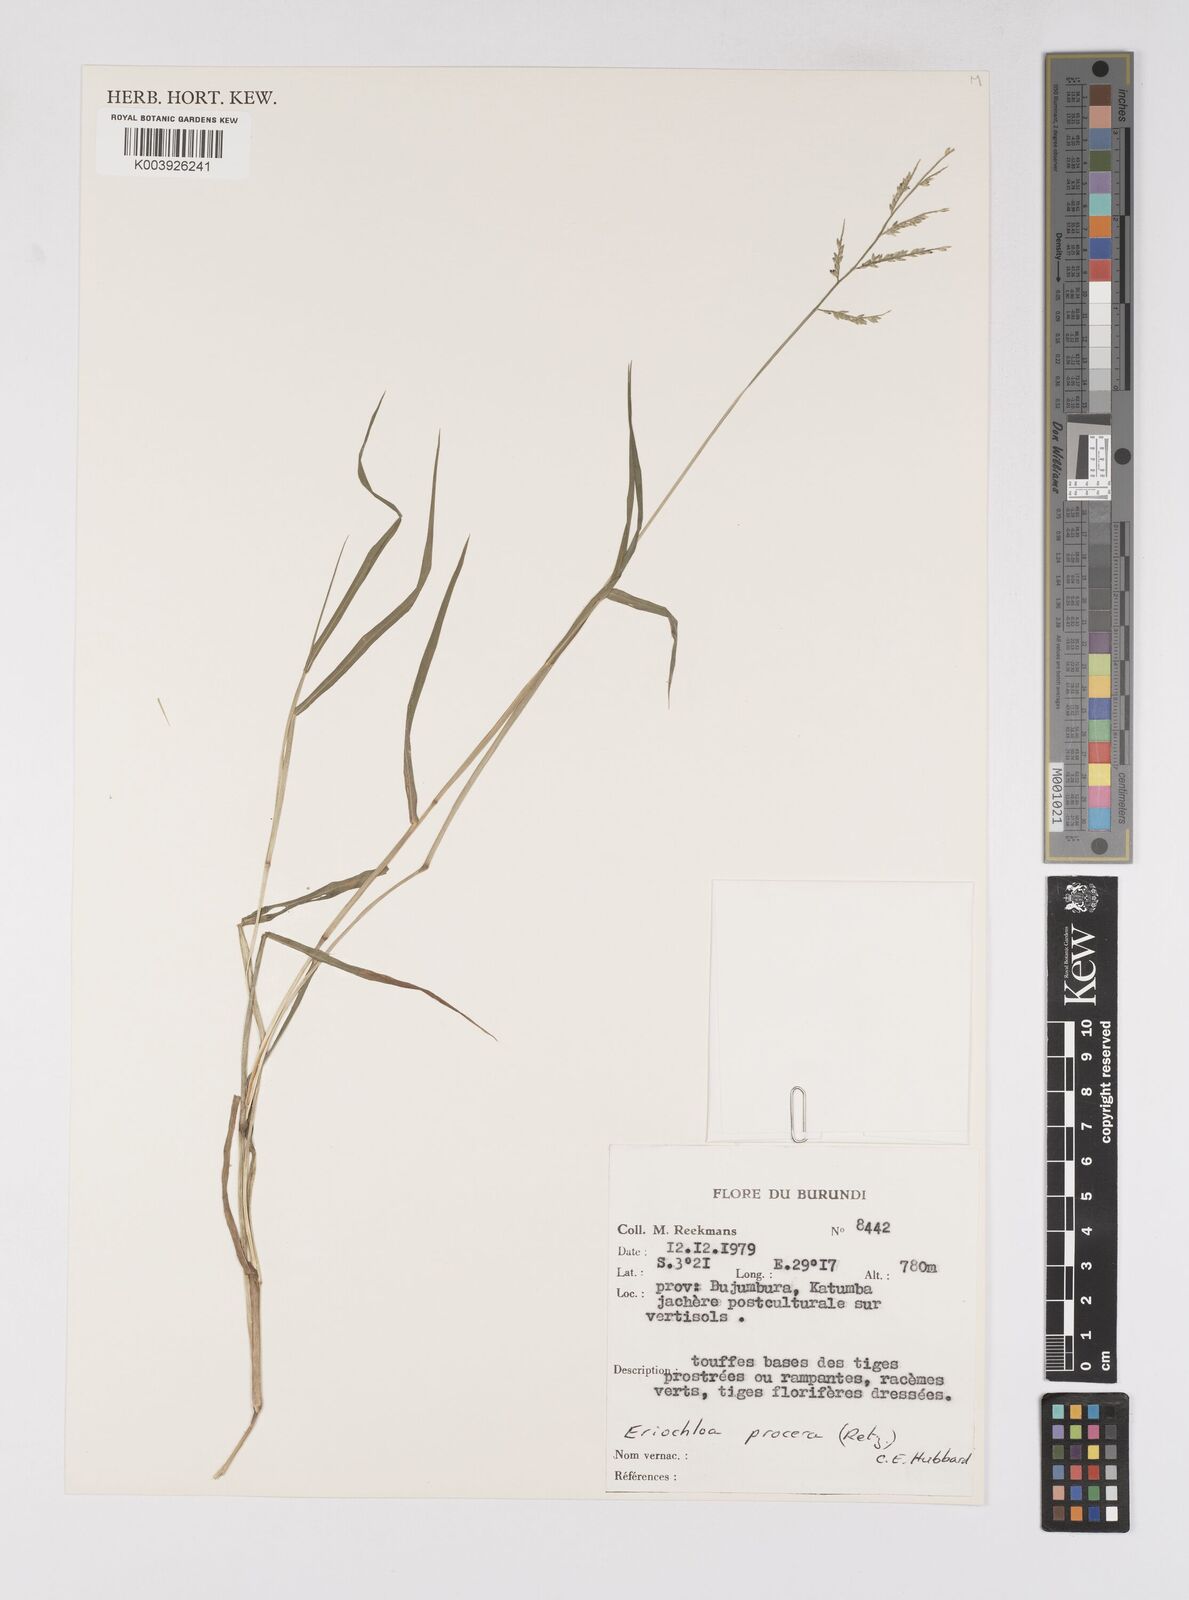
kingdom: Plantae
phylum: Tracheophyta
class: Liliopsida
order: Poales
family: Poaceae
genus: Eriochloa
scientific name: Eriochloa procera
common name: Spring grass
